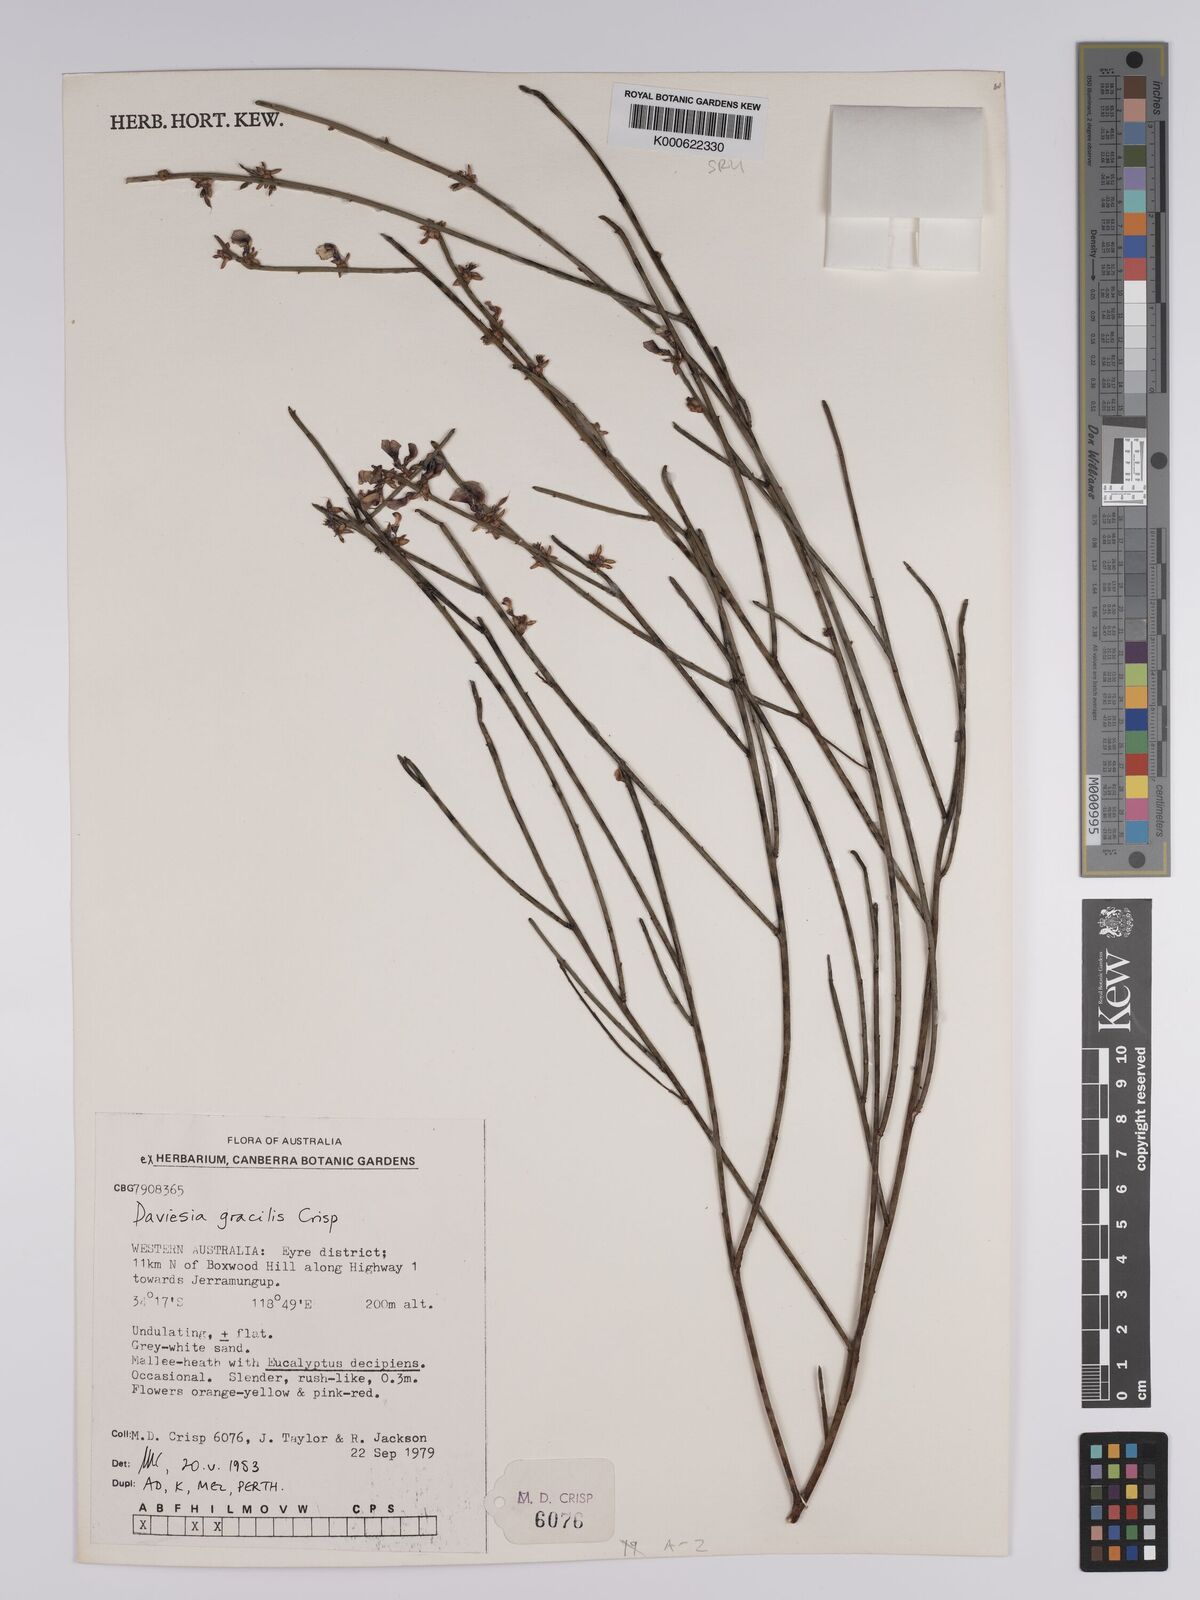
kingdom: Plantae
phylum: Tracheophyta
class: Magnoliopsida
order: Fabales
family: Fabaceae
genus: Daviesia
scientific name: Daviesia gracilis
